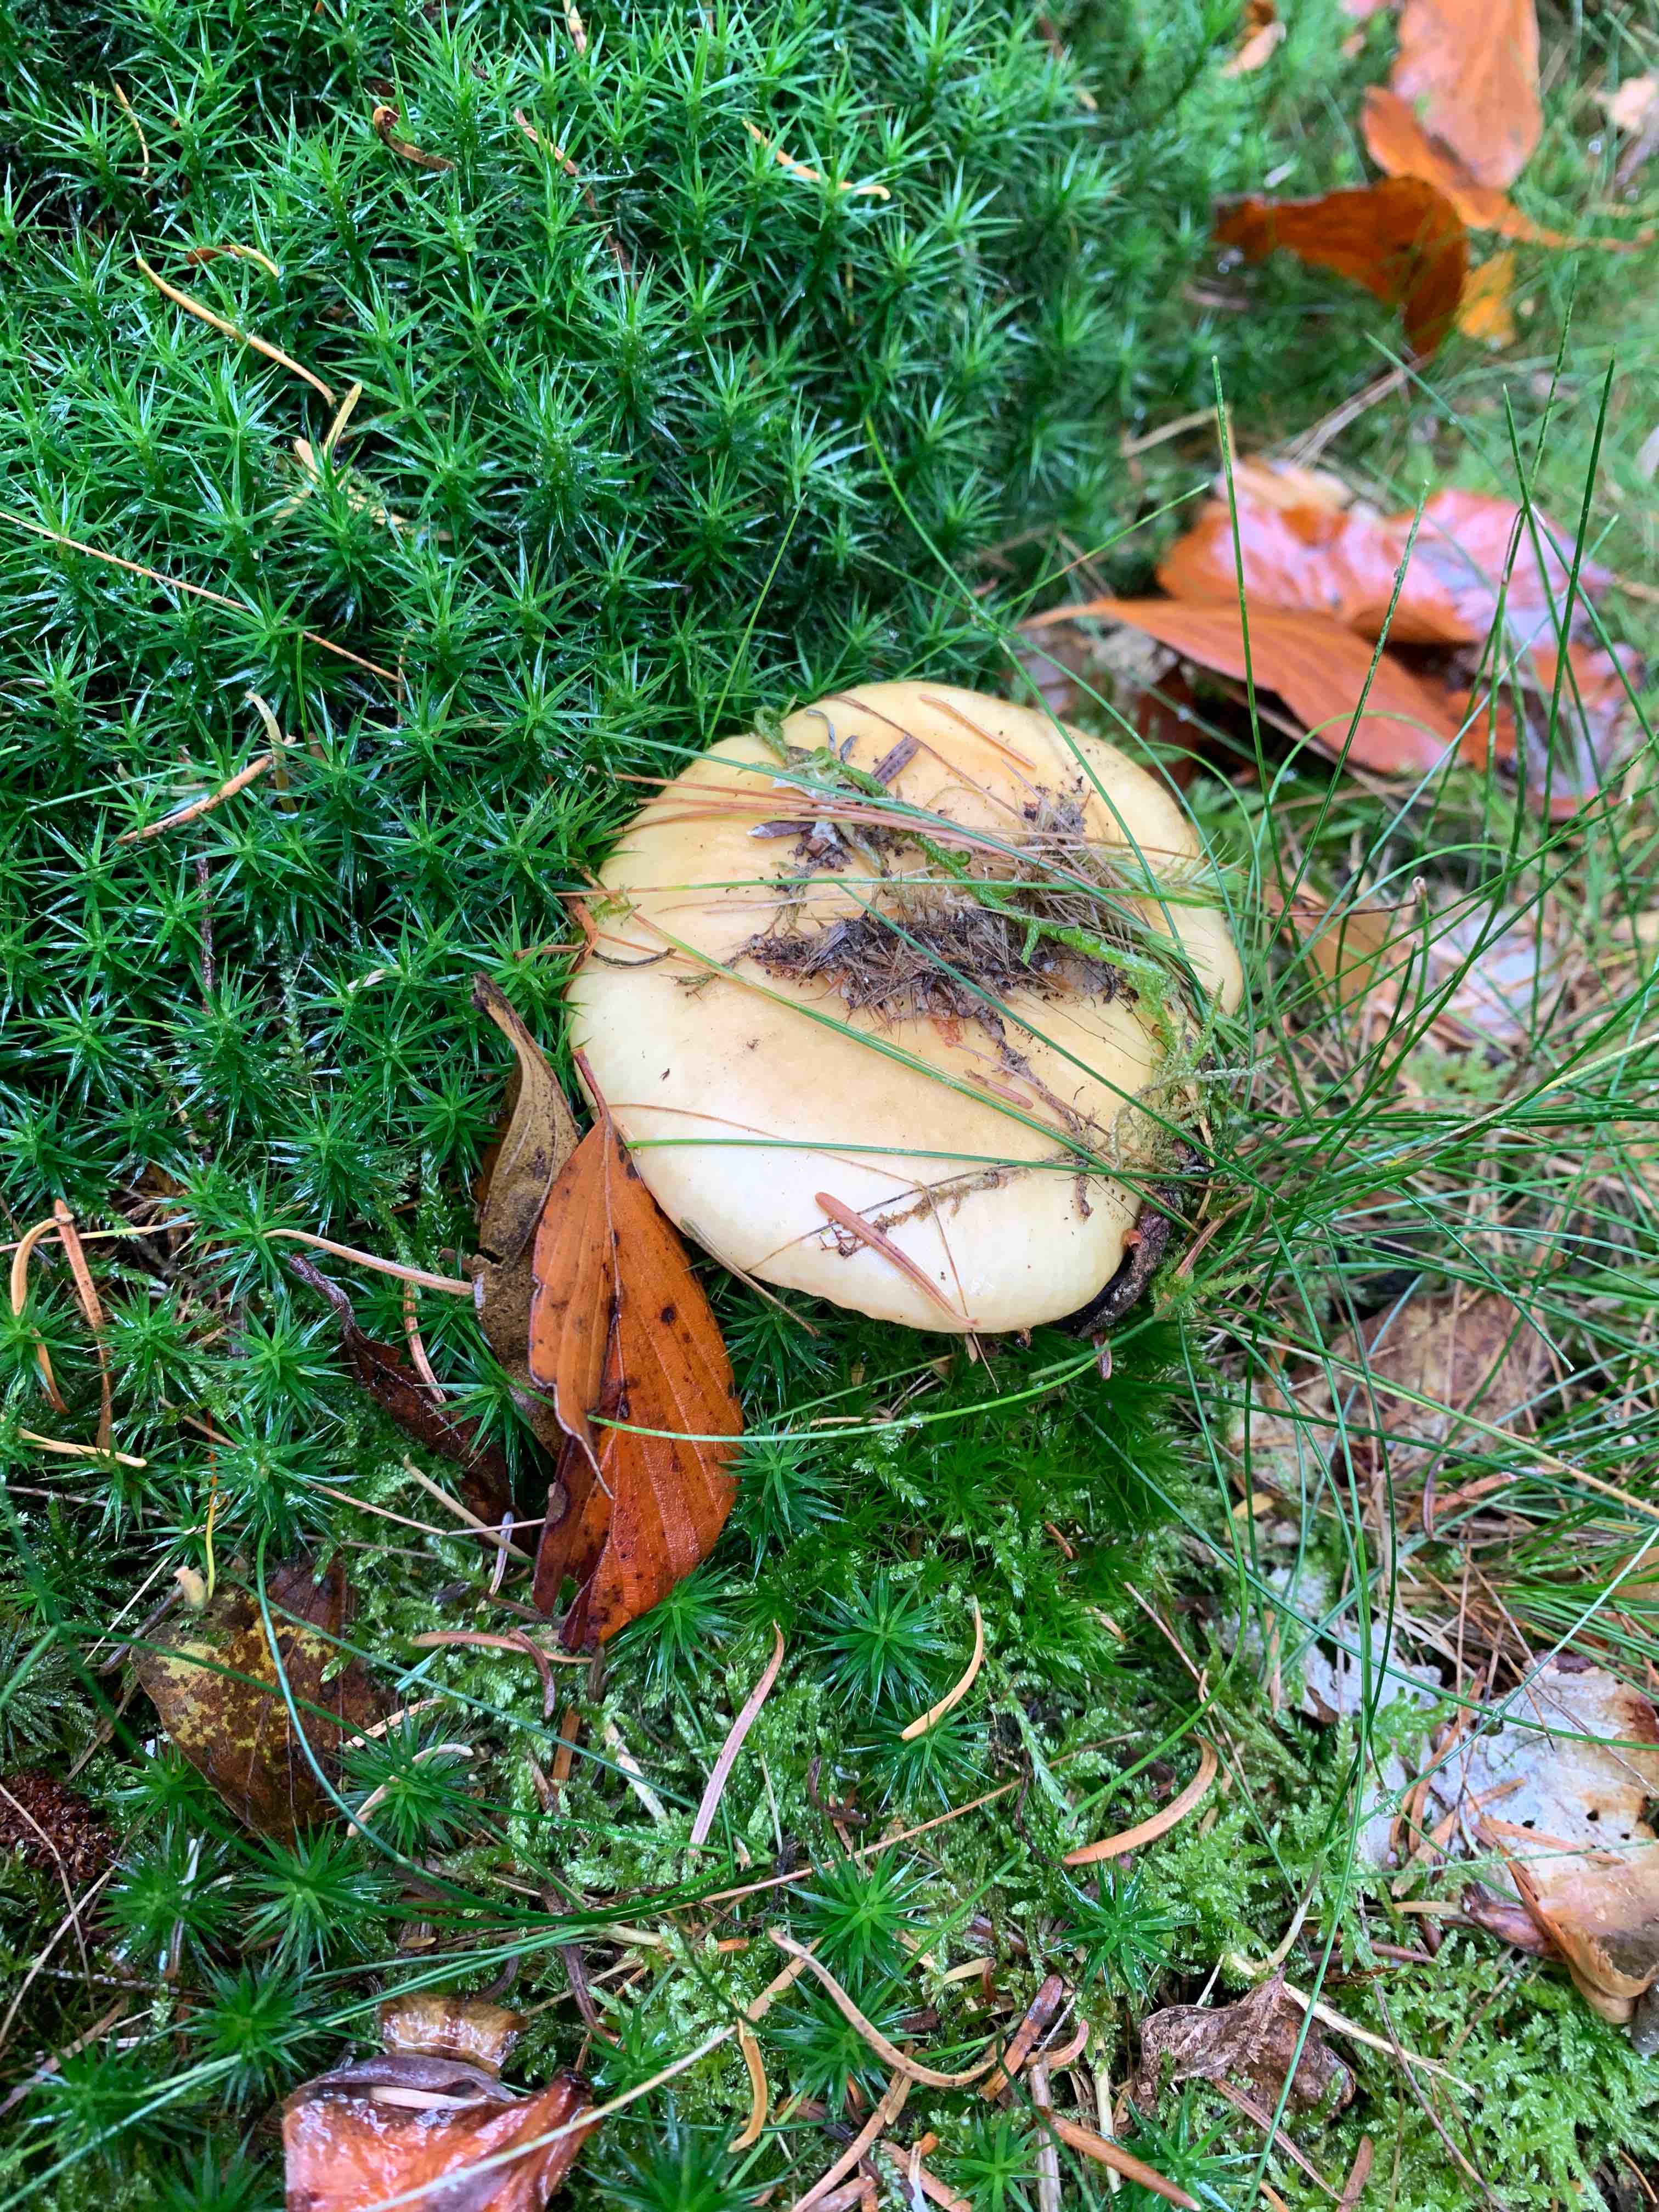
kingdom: Fungi
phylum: Basidiomycota
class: Agaricomycetes
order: Russulales
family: Russulaceae
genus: Russula
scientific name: Russula ochroleuca
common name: okkergul skørhat
